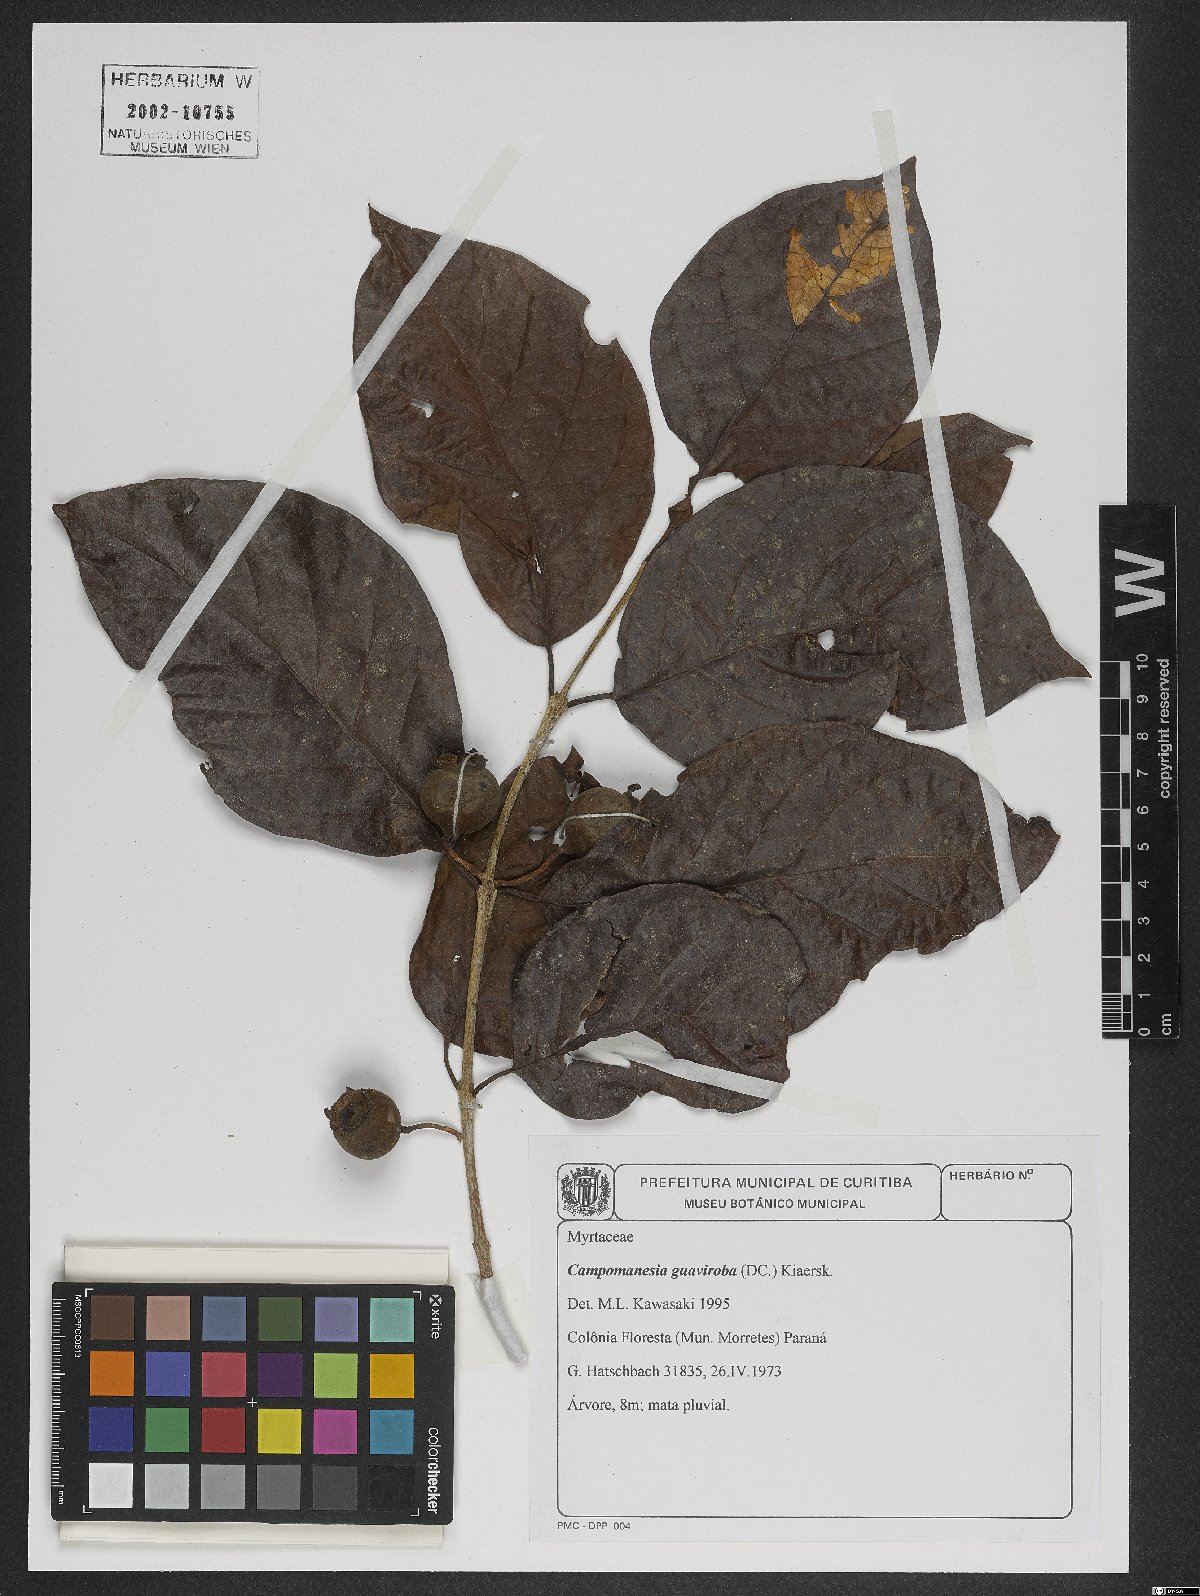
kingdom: Plantae
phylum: Tracheophyta
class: Magnoliopsida
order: Myrtales
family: Myrtaceae
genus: Campomanesia
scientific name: Campomanesia guaviroba
